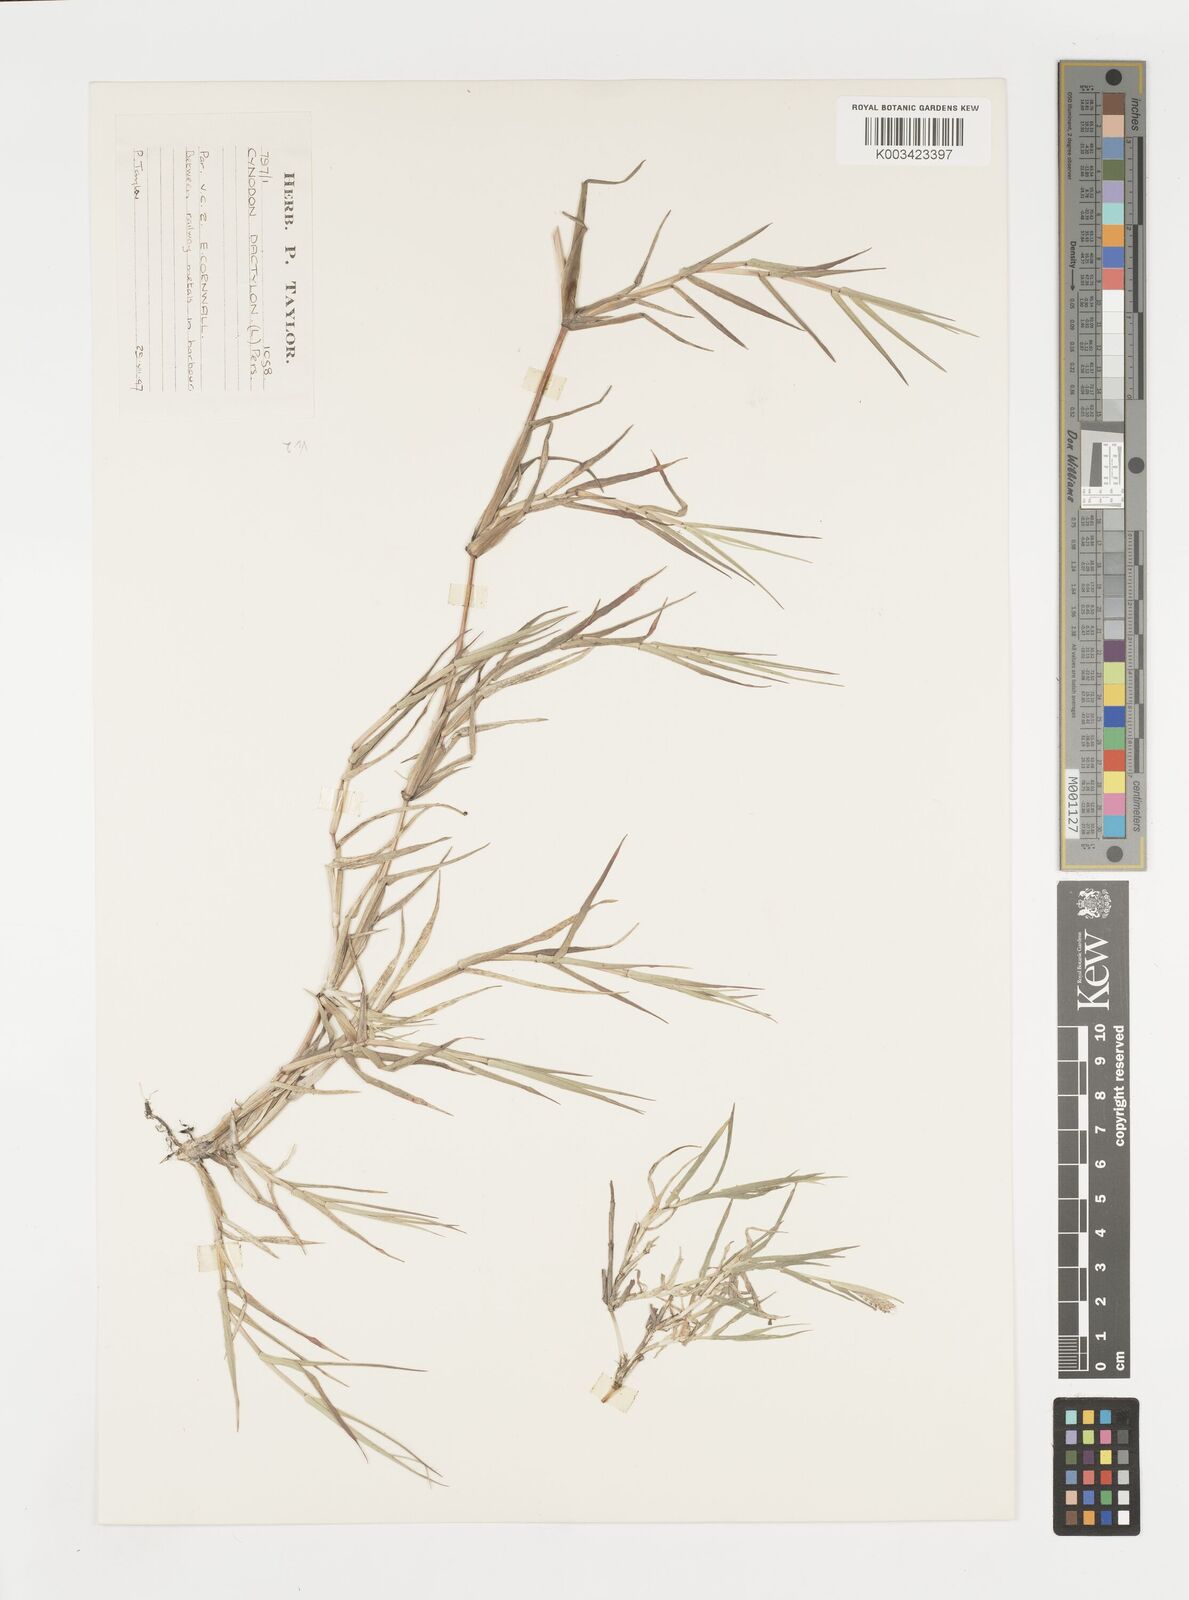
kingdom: Plantae
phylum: Tracheophyta
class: Liliopsida
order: Poales
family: Poaceae
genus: Cynodon
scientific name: Cynodon dactylon
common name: Bermuda grass
